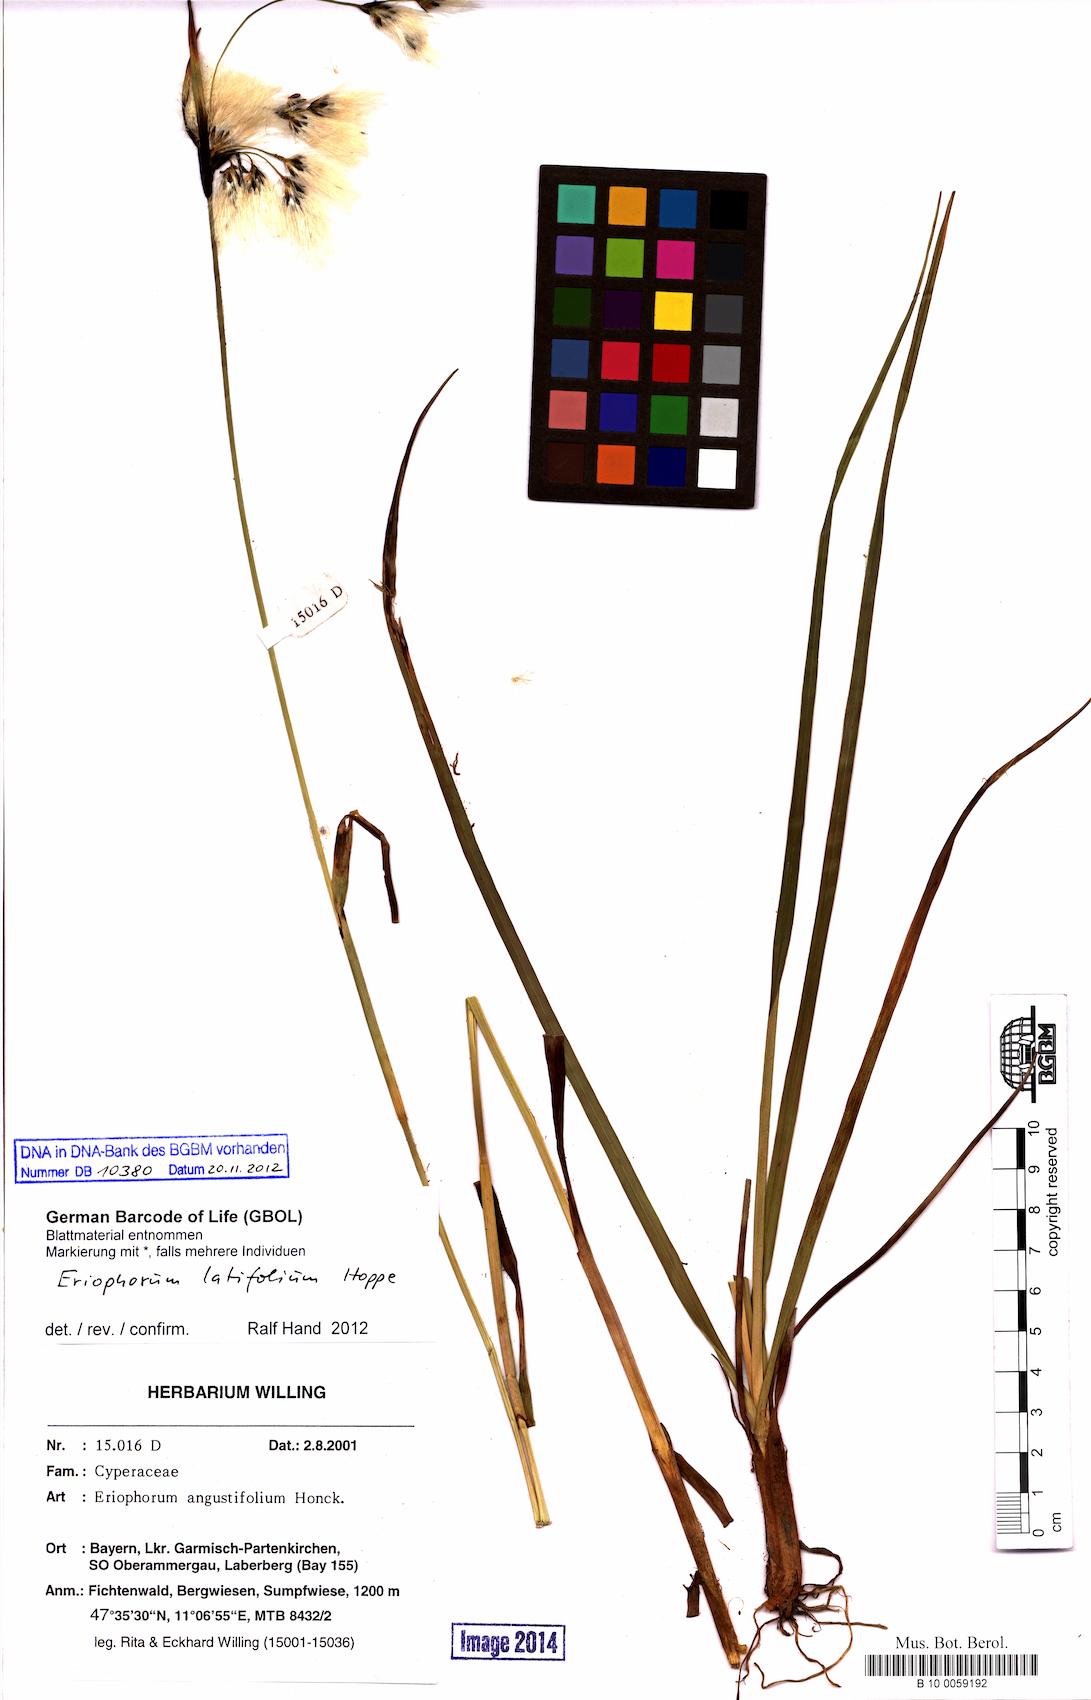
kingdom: Plantae
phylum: Tracheophyta
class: Liliopsida
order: Poales
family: Cyperaceae
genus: Eriophorum
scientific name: Eriophorum latifolium
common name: Broad-leaved cottongrass
